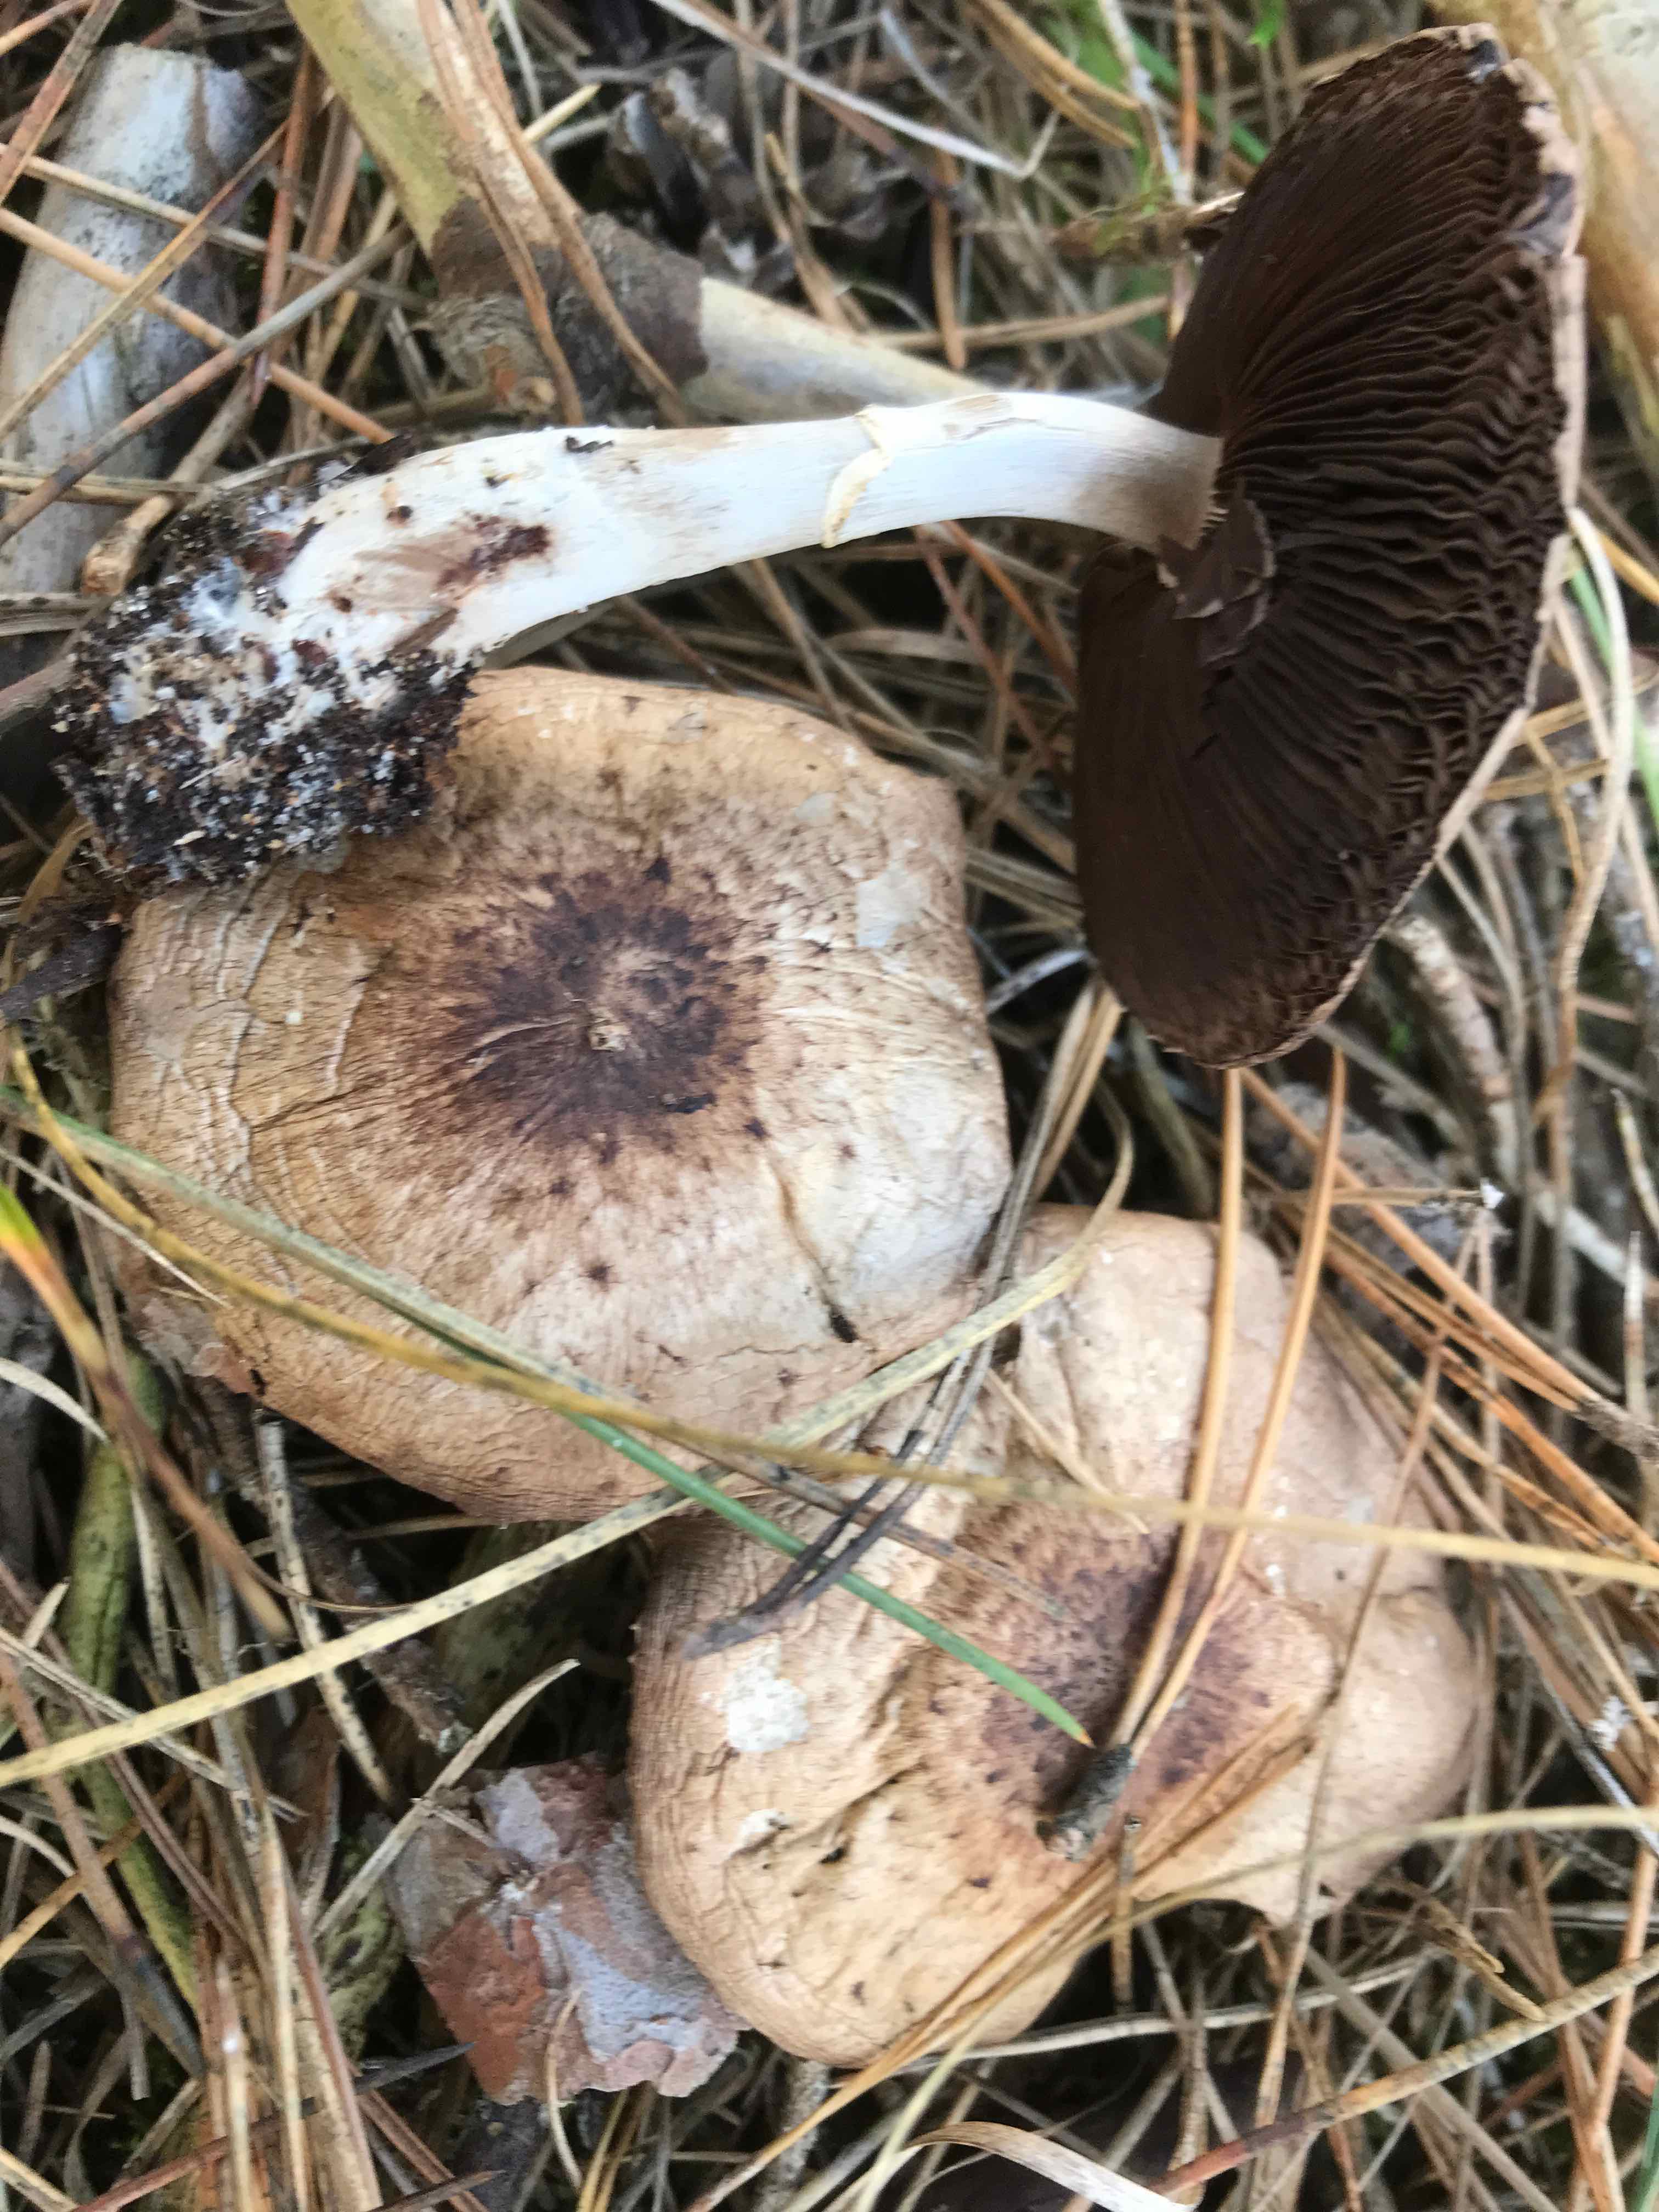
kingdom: Fungi
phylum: Basidiomycota
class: Agaricomycetes
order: Agaricales
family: Agaricaceae
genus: Agaricus
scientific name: Agaricus impudicus
